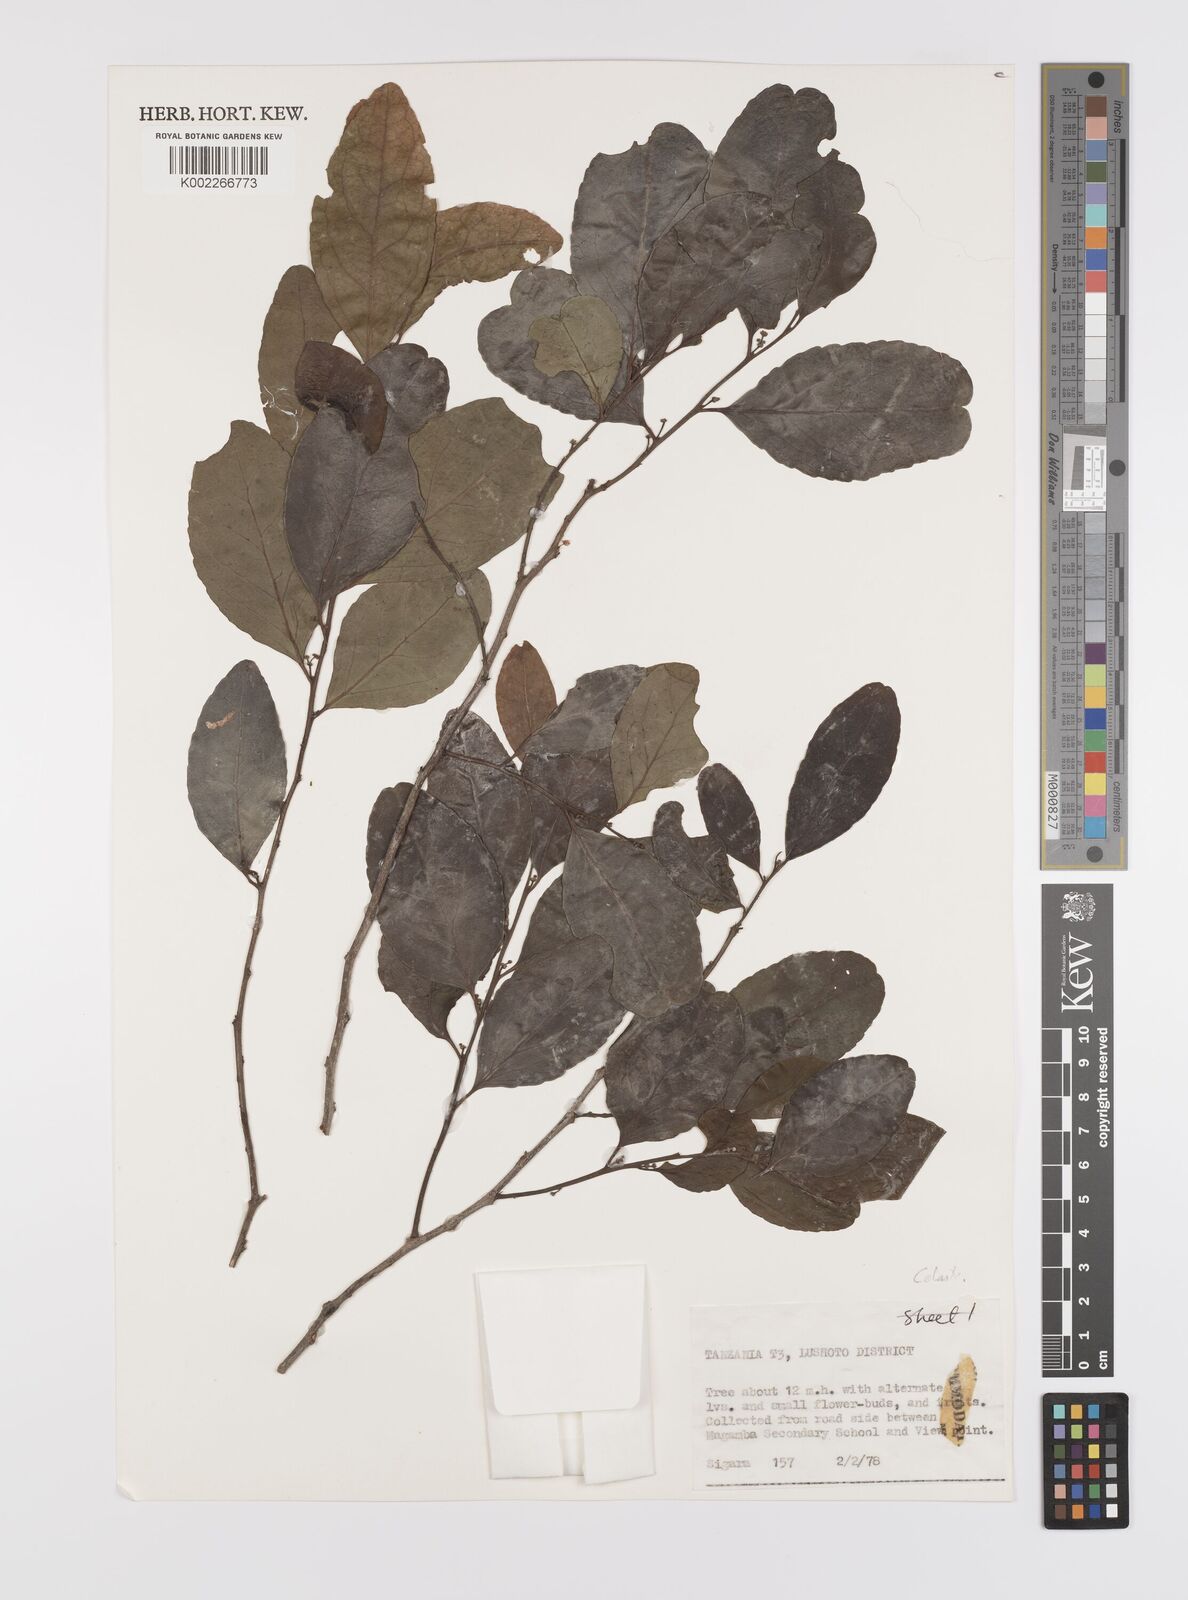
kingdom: Plantae
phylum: Tracheophyta
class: Magnoliopsida
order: Celastrales
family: Celastraceae
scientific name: Celastraceae
